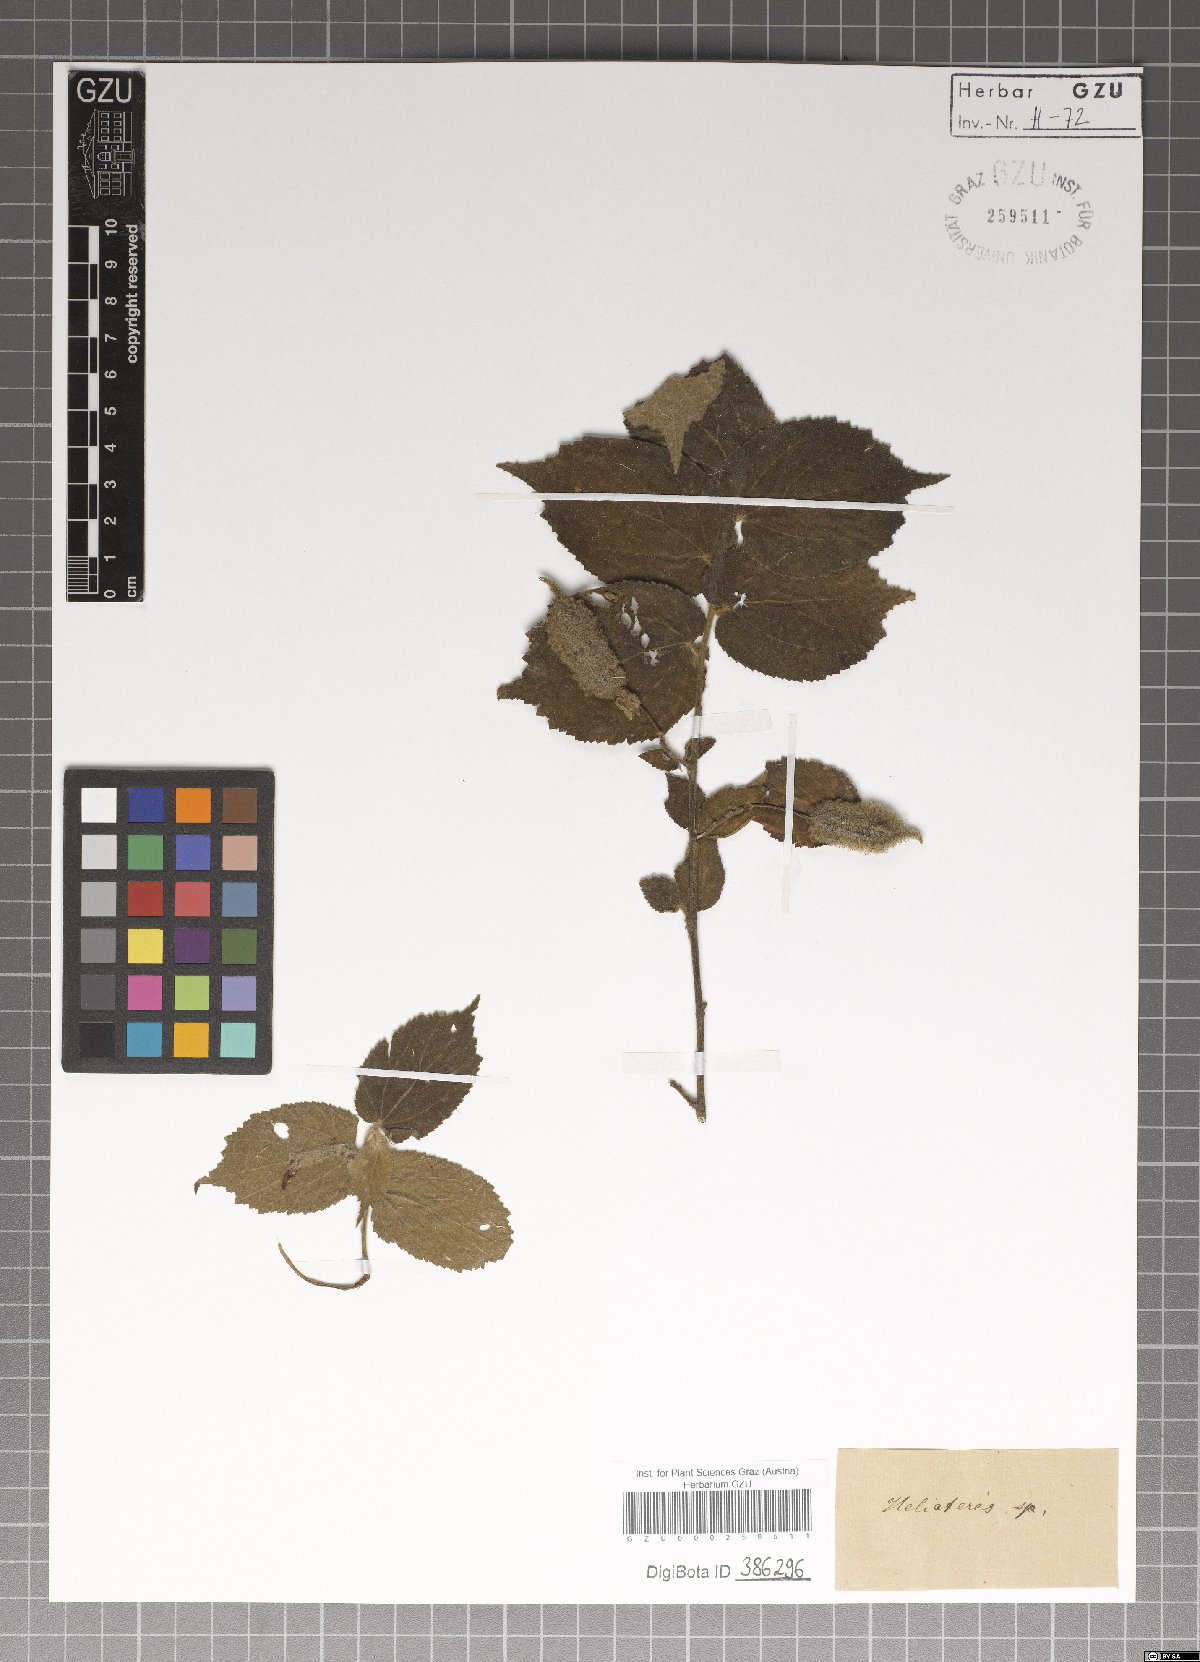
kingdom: Plantae
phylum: Tracheophyta
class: Magnoliopsida
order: Malvales
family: Malvaceae
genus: Helicteres
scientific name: Helicteres
